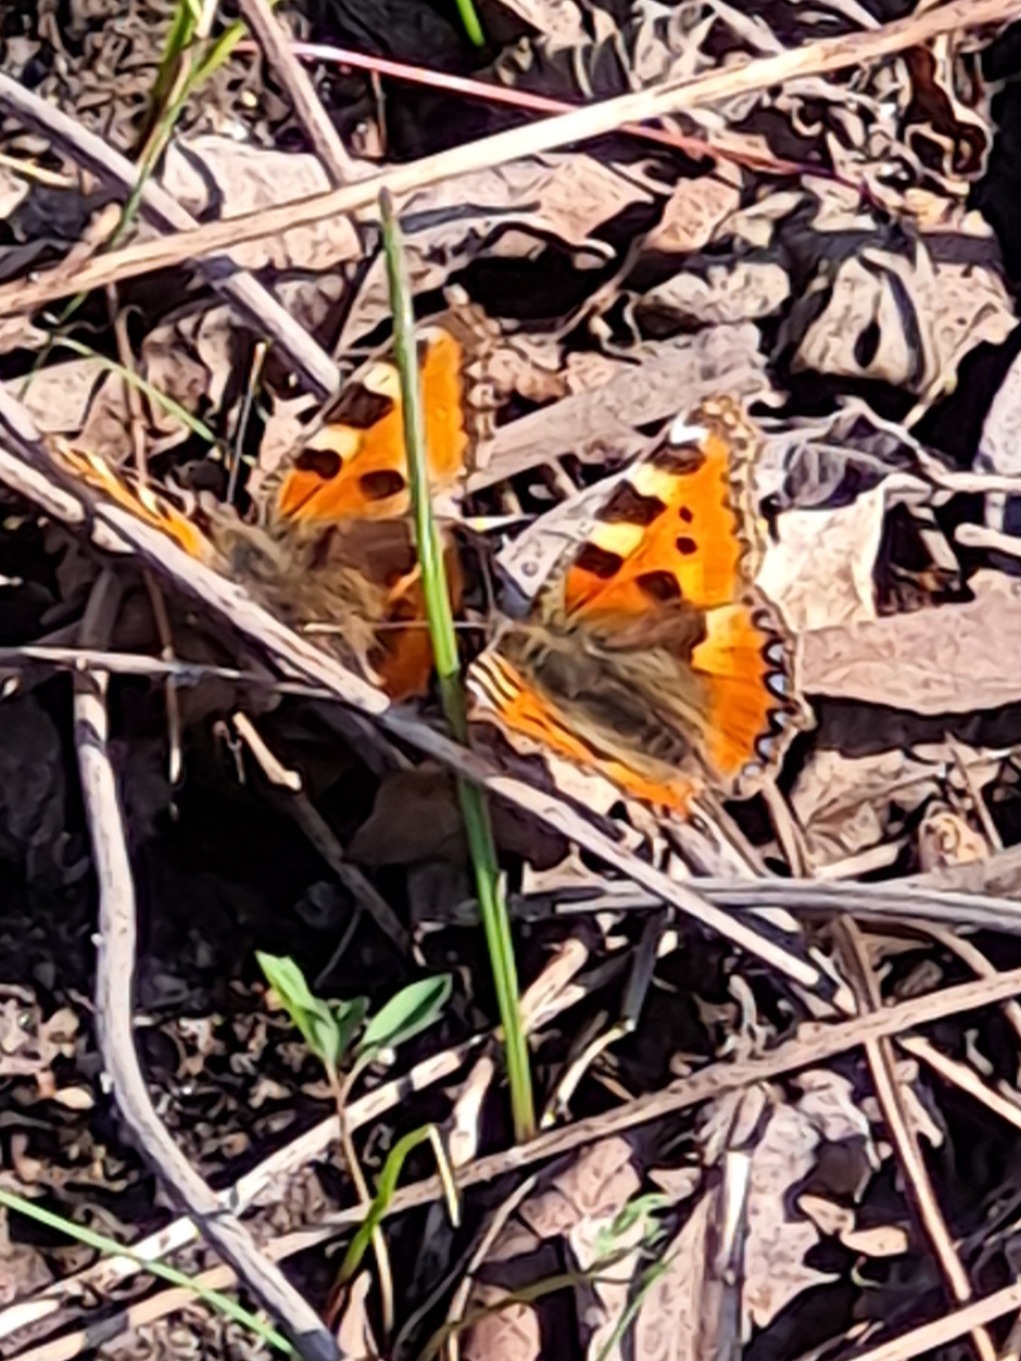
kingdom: Animalia
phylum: Arthropoda
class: Insecta
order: Lepidoptera
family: Nymphalidae
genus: Aglais
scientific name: Aglais urticae
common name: Nældens takvinge
